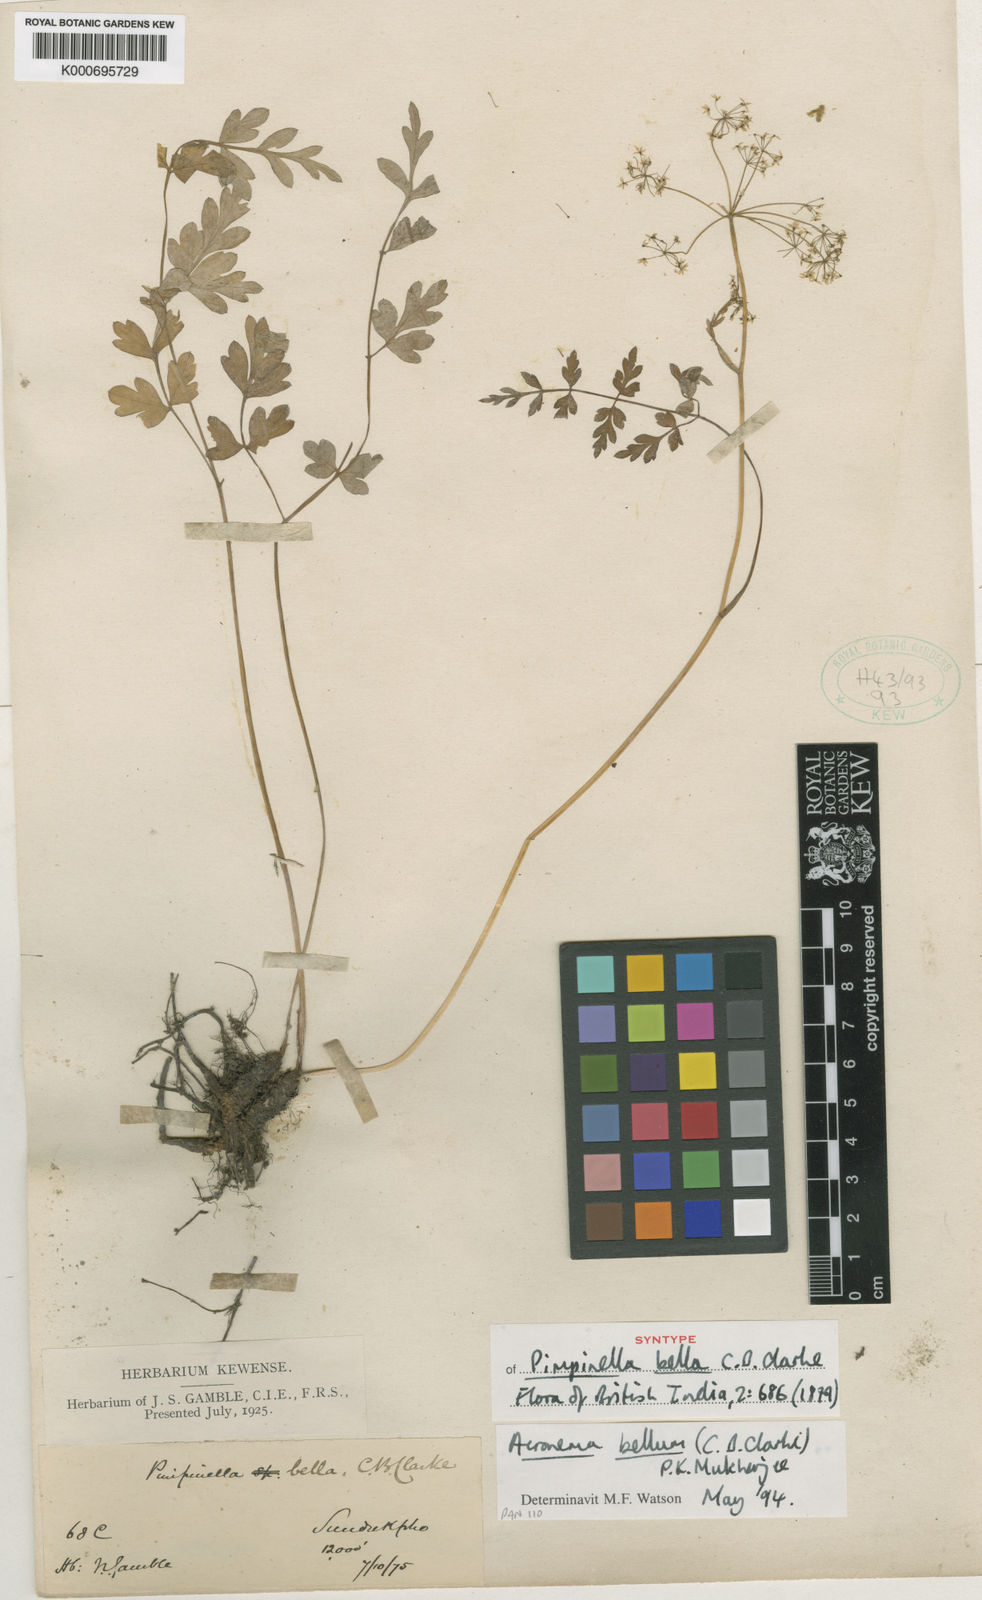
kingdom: Plantae
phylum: Tracheophyta
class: Magnoliopsida
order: Apiales
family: Apiaceae
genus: Sinocarum
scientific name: Sinocarum bellum
